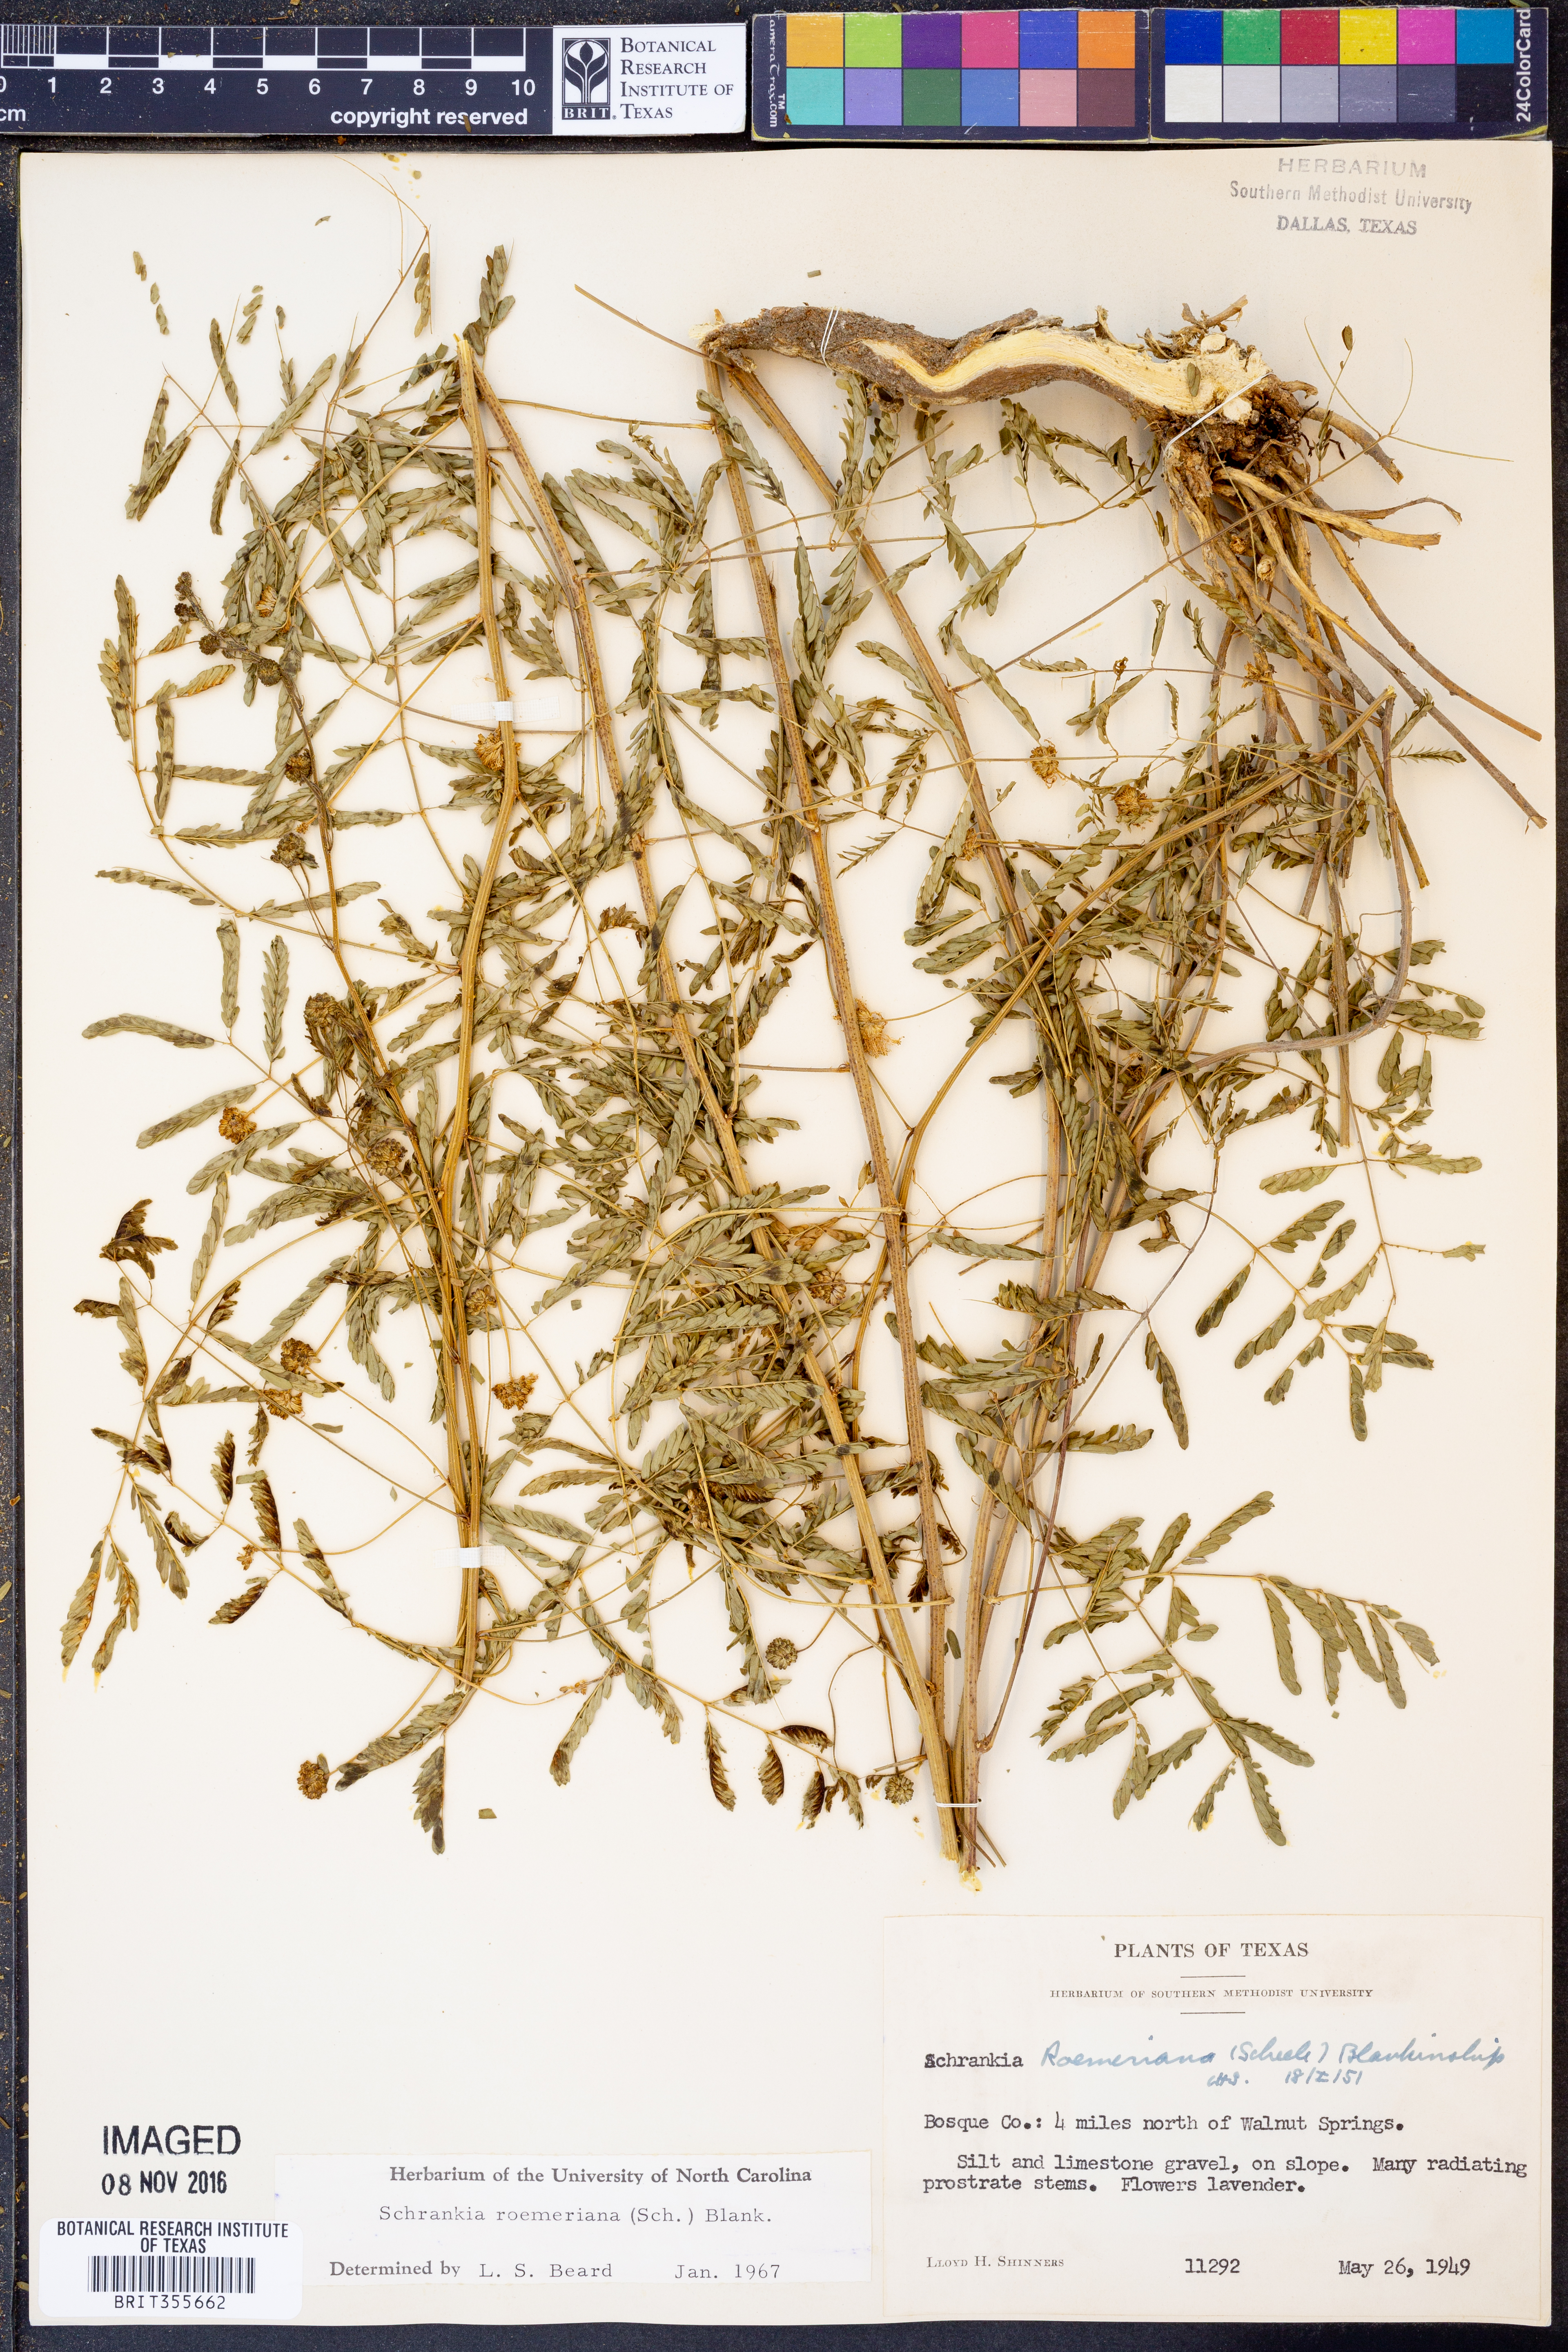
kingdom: Plantae
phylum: Tracheophyta
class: Magnoliopsida
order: Fabales
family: Fabaceae
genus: Mimosa
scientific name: Mimosa quadrivalvis
